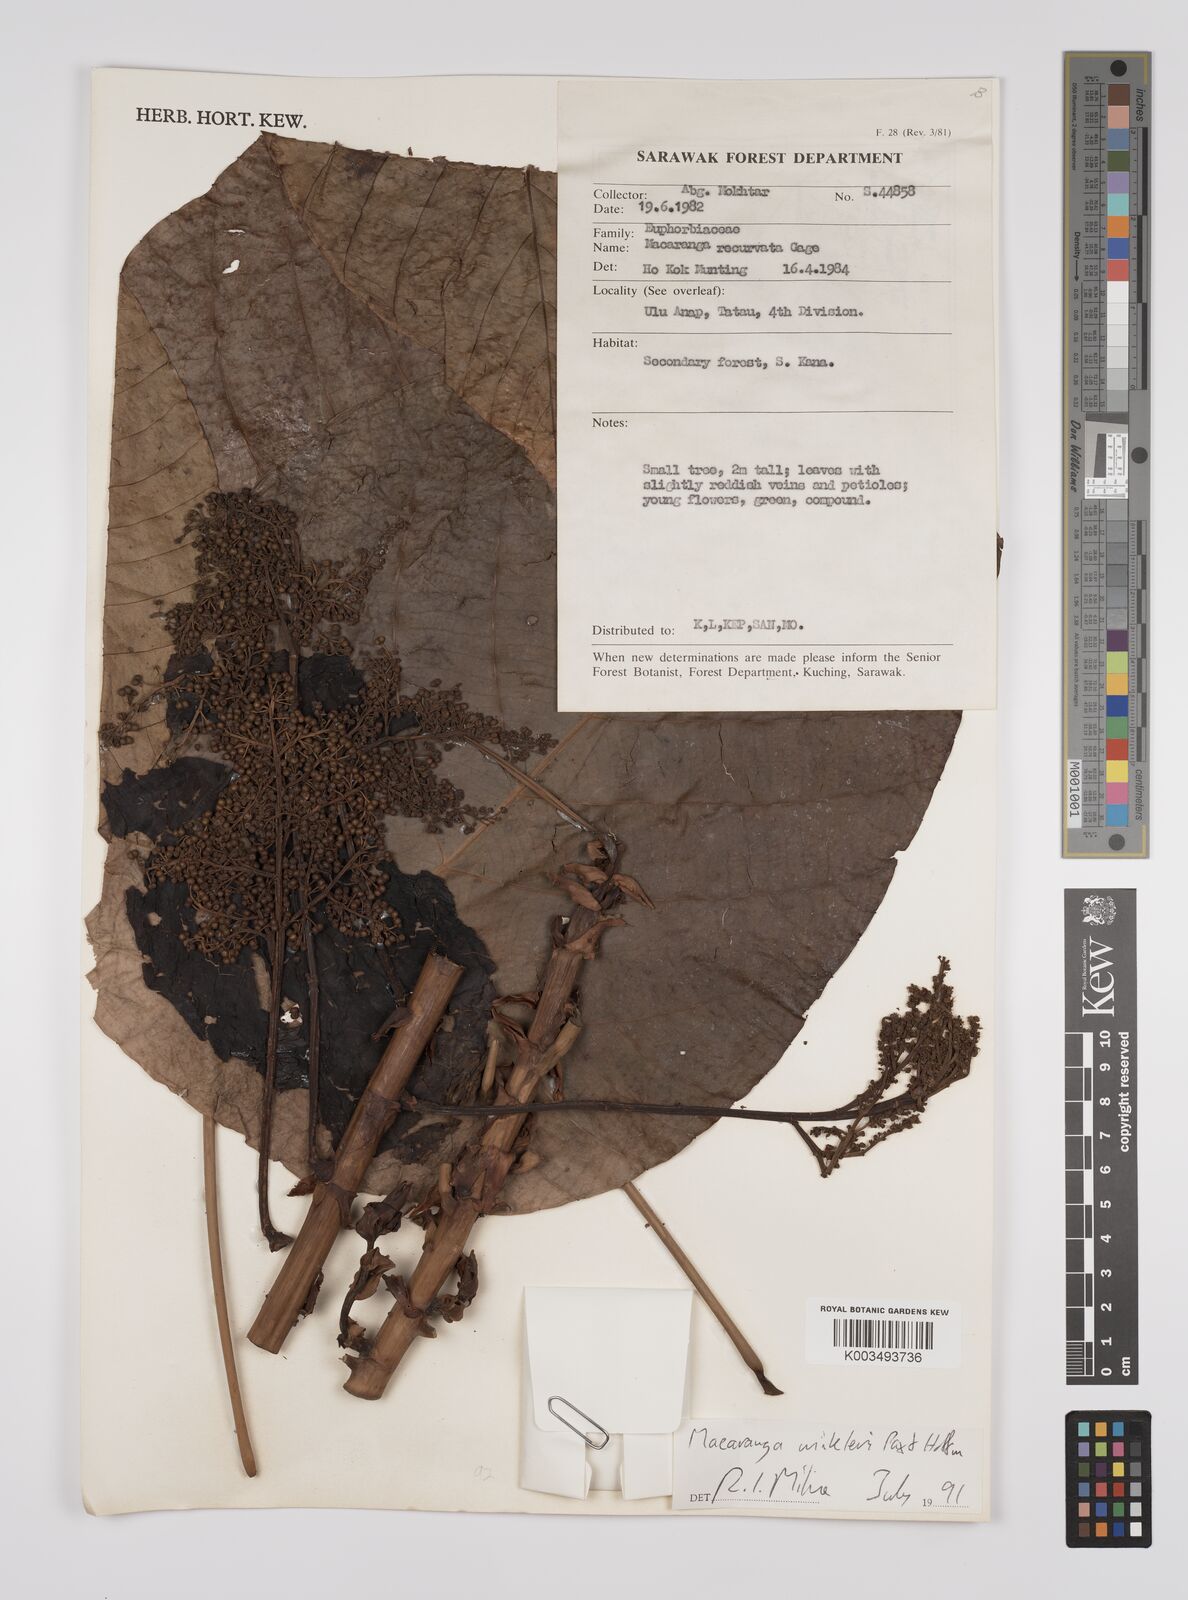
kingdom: Plantae
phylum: Tracheophyta
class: Magnoliopsida
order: Malpighiales
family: Euphorbiaceae
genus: Macaranga
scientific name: Macaranga winkleri
